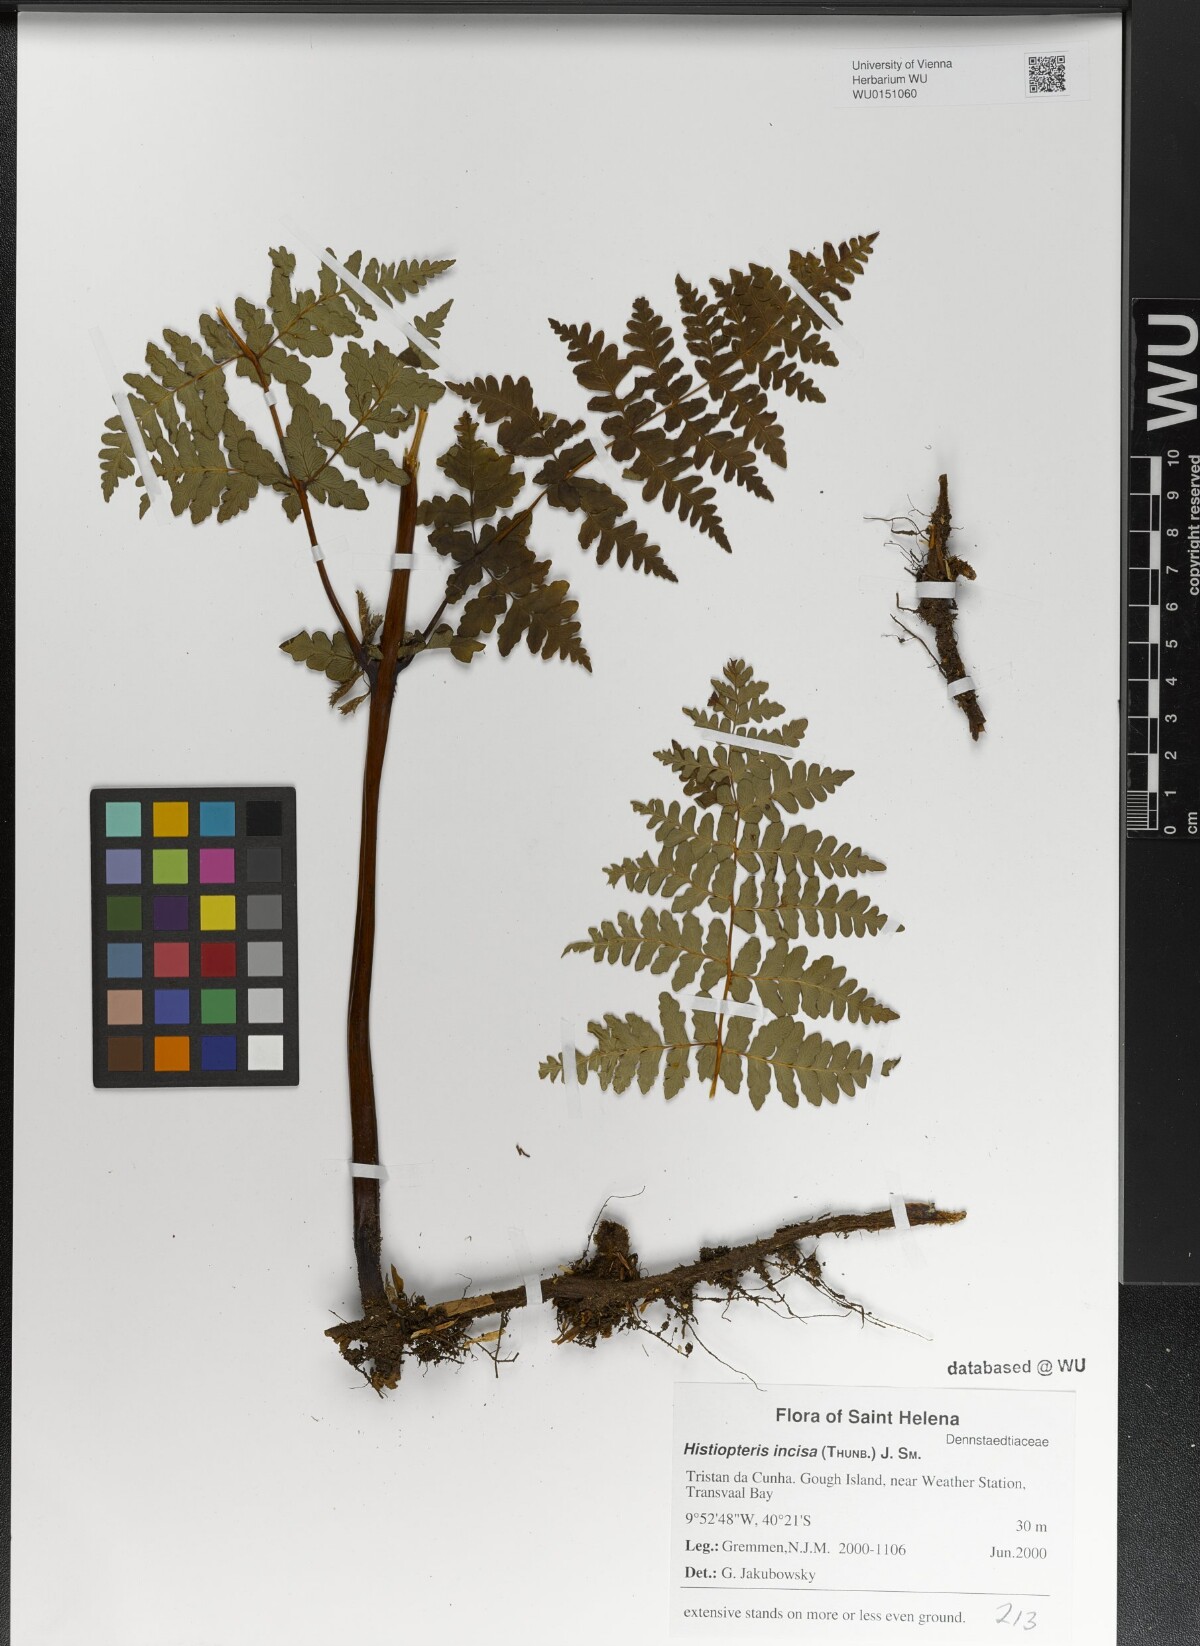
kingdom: Plantae
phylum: Tracheophyta
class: Polypodiopsida
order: Polypodiales
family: Dennstaedtiaceae
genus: Histiopteris
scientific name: Histiopteris incisa
